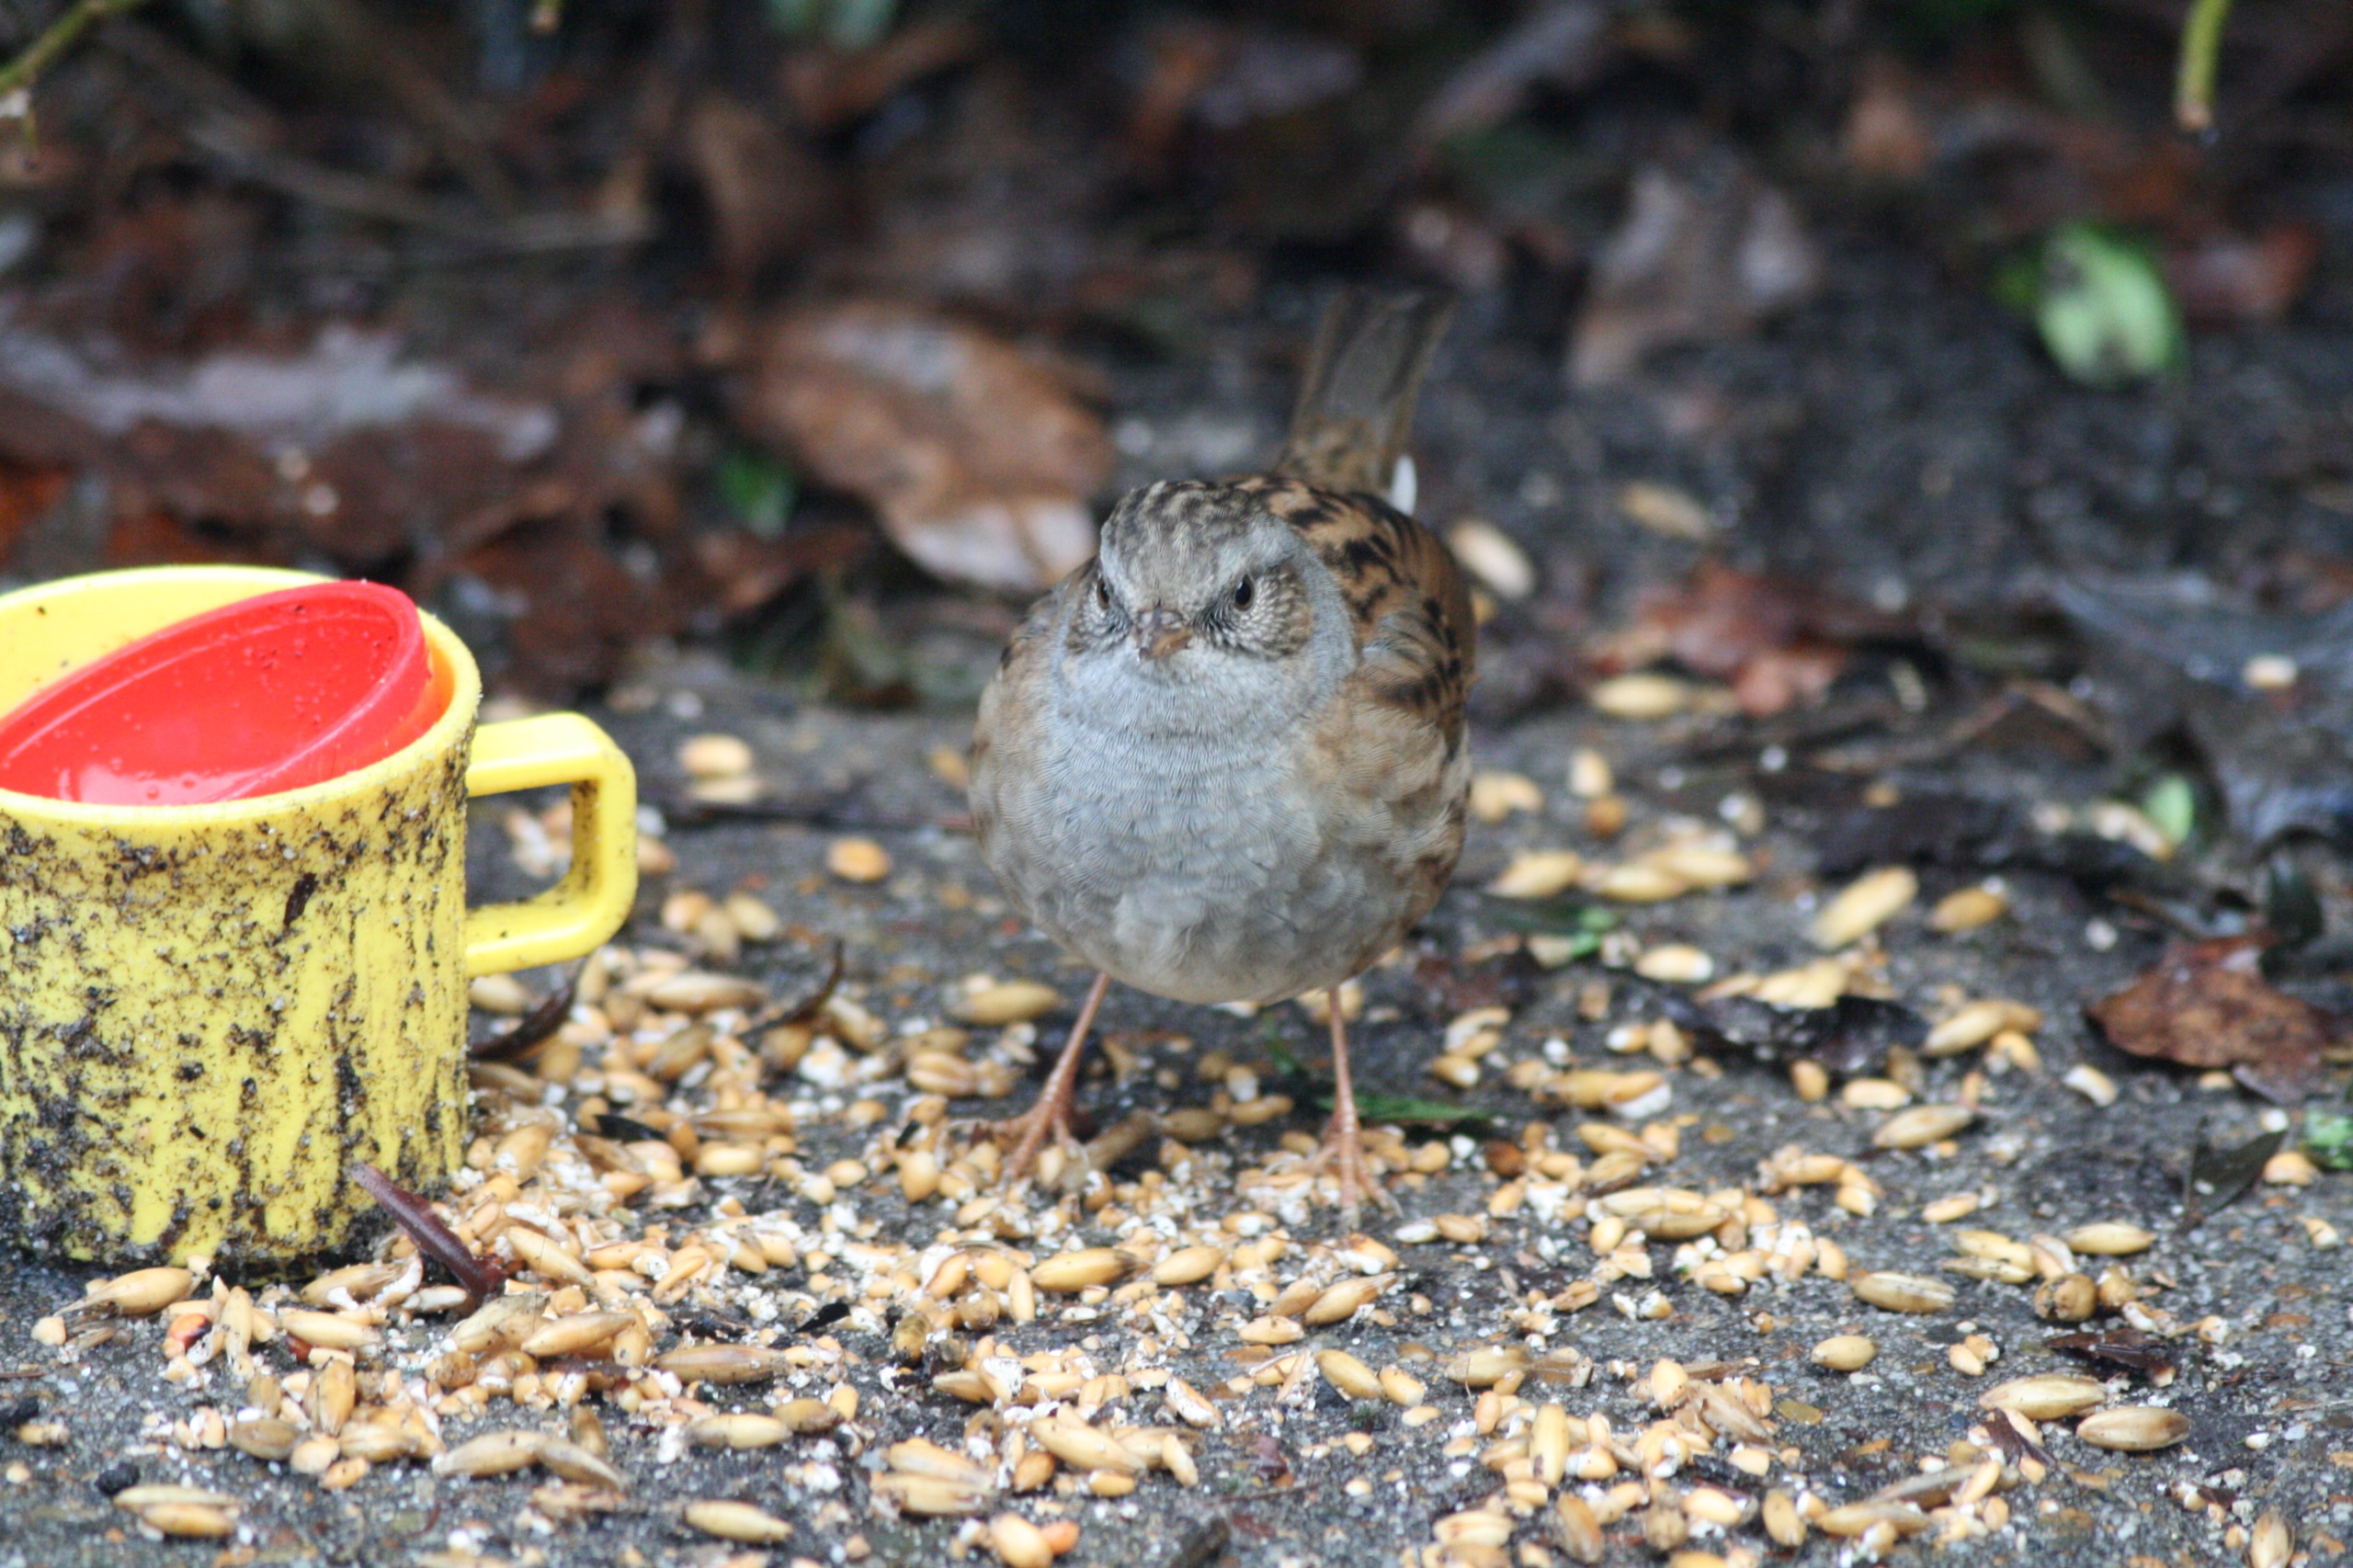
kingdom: Animalia
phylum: Chordata
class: Aves
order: Passeriformes
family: Prunellidae
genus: Prunella
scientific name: Prunella modularis
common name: Jernspurv
